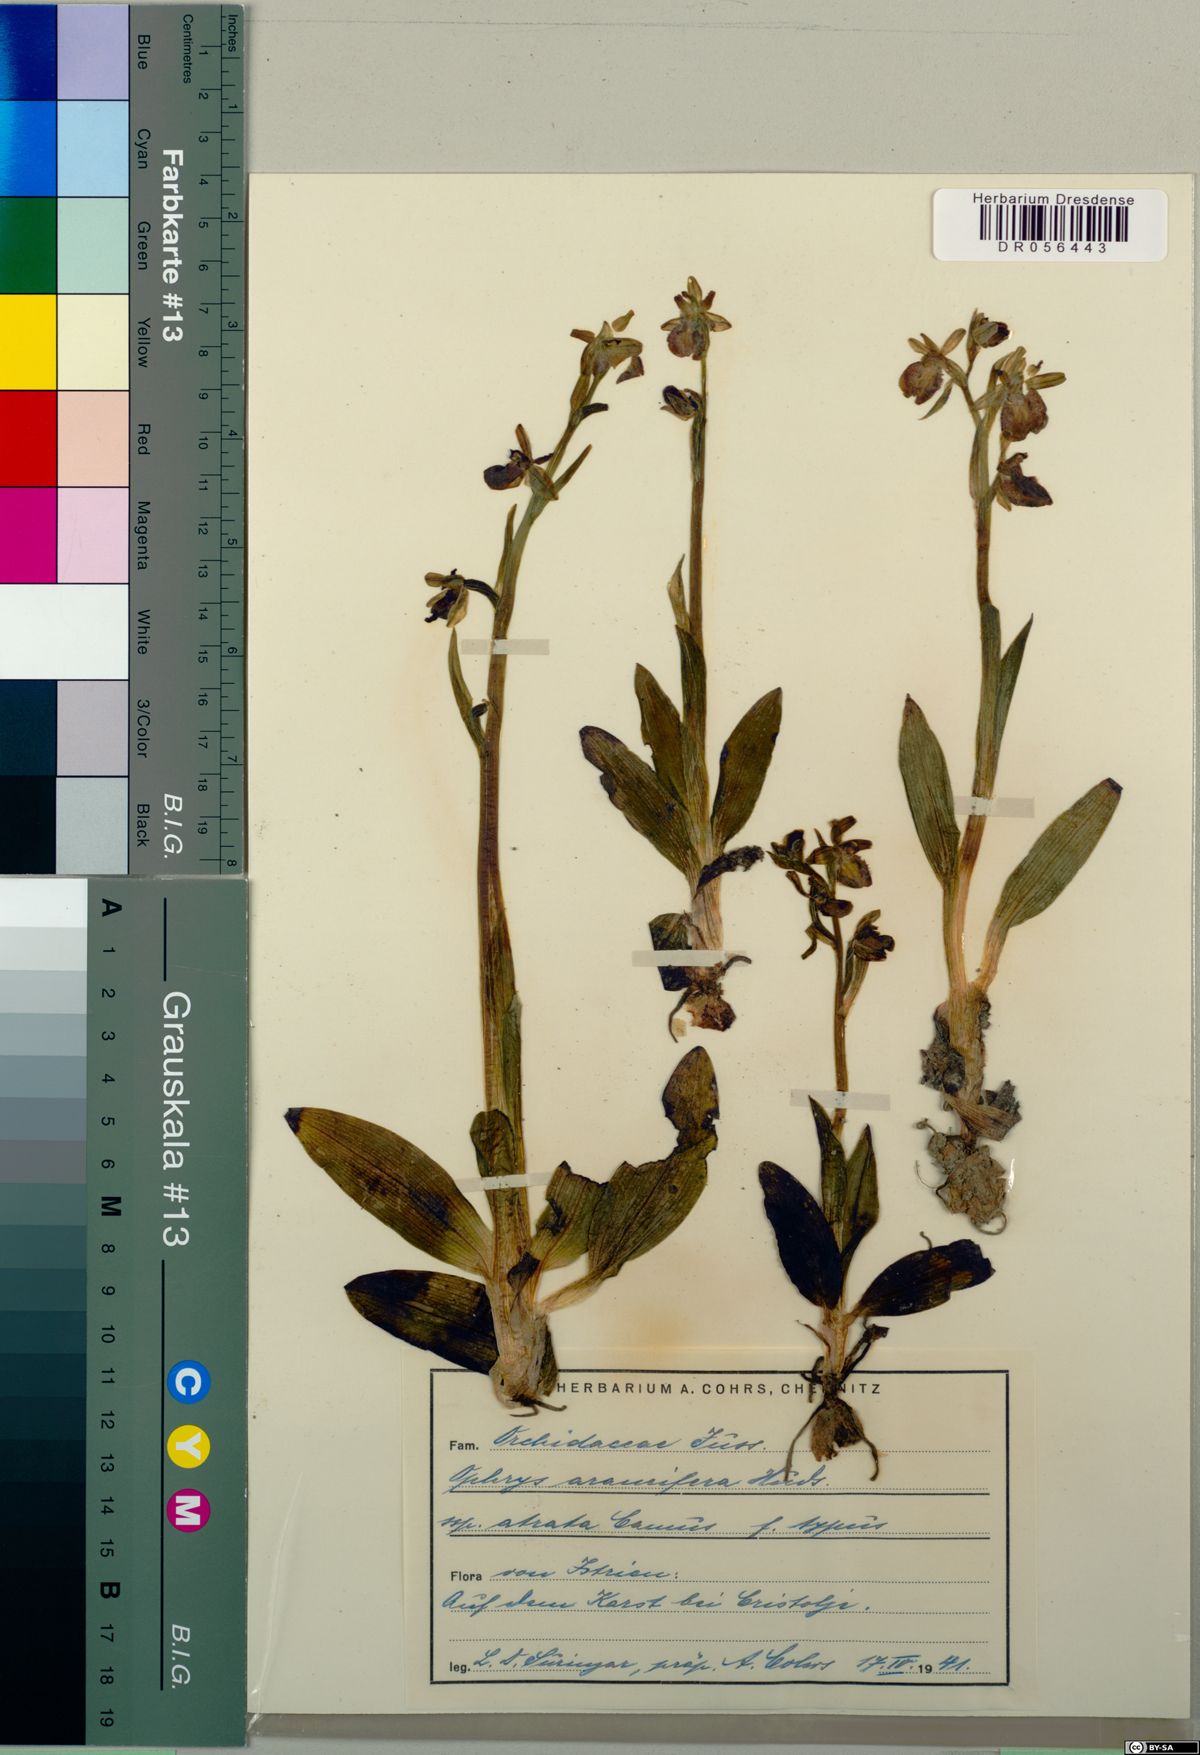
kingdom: Plantae
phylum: Tracheophyta
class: Liliopsida
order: Asparagales
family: Orchidaceae
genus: Ophrys
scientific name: Ophrys sphegodes
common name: Early spider-orchid
